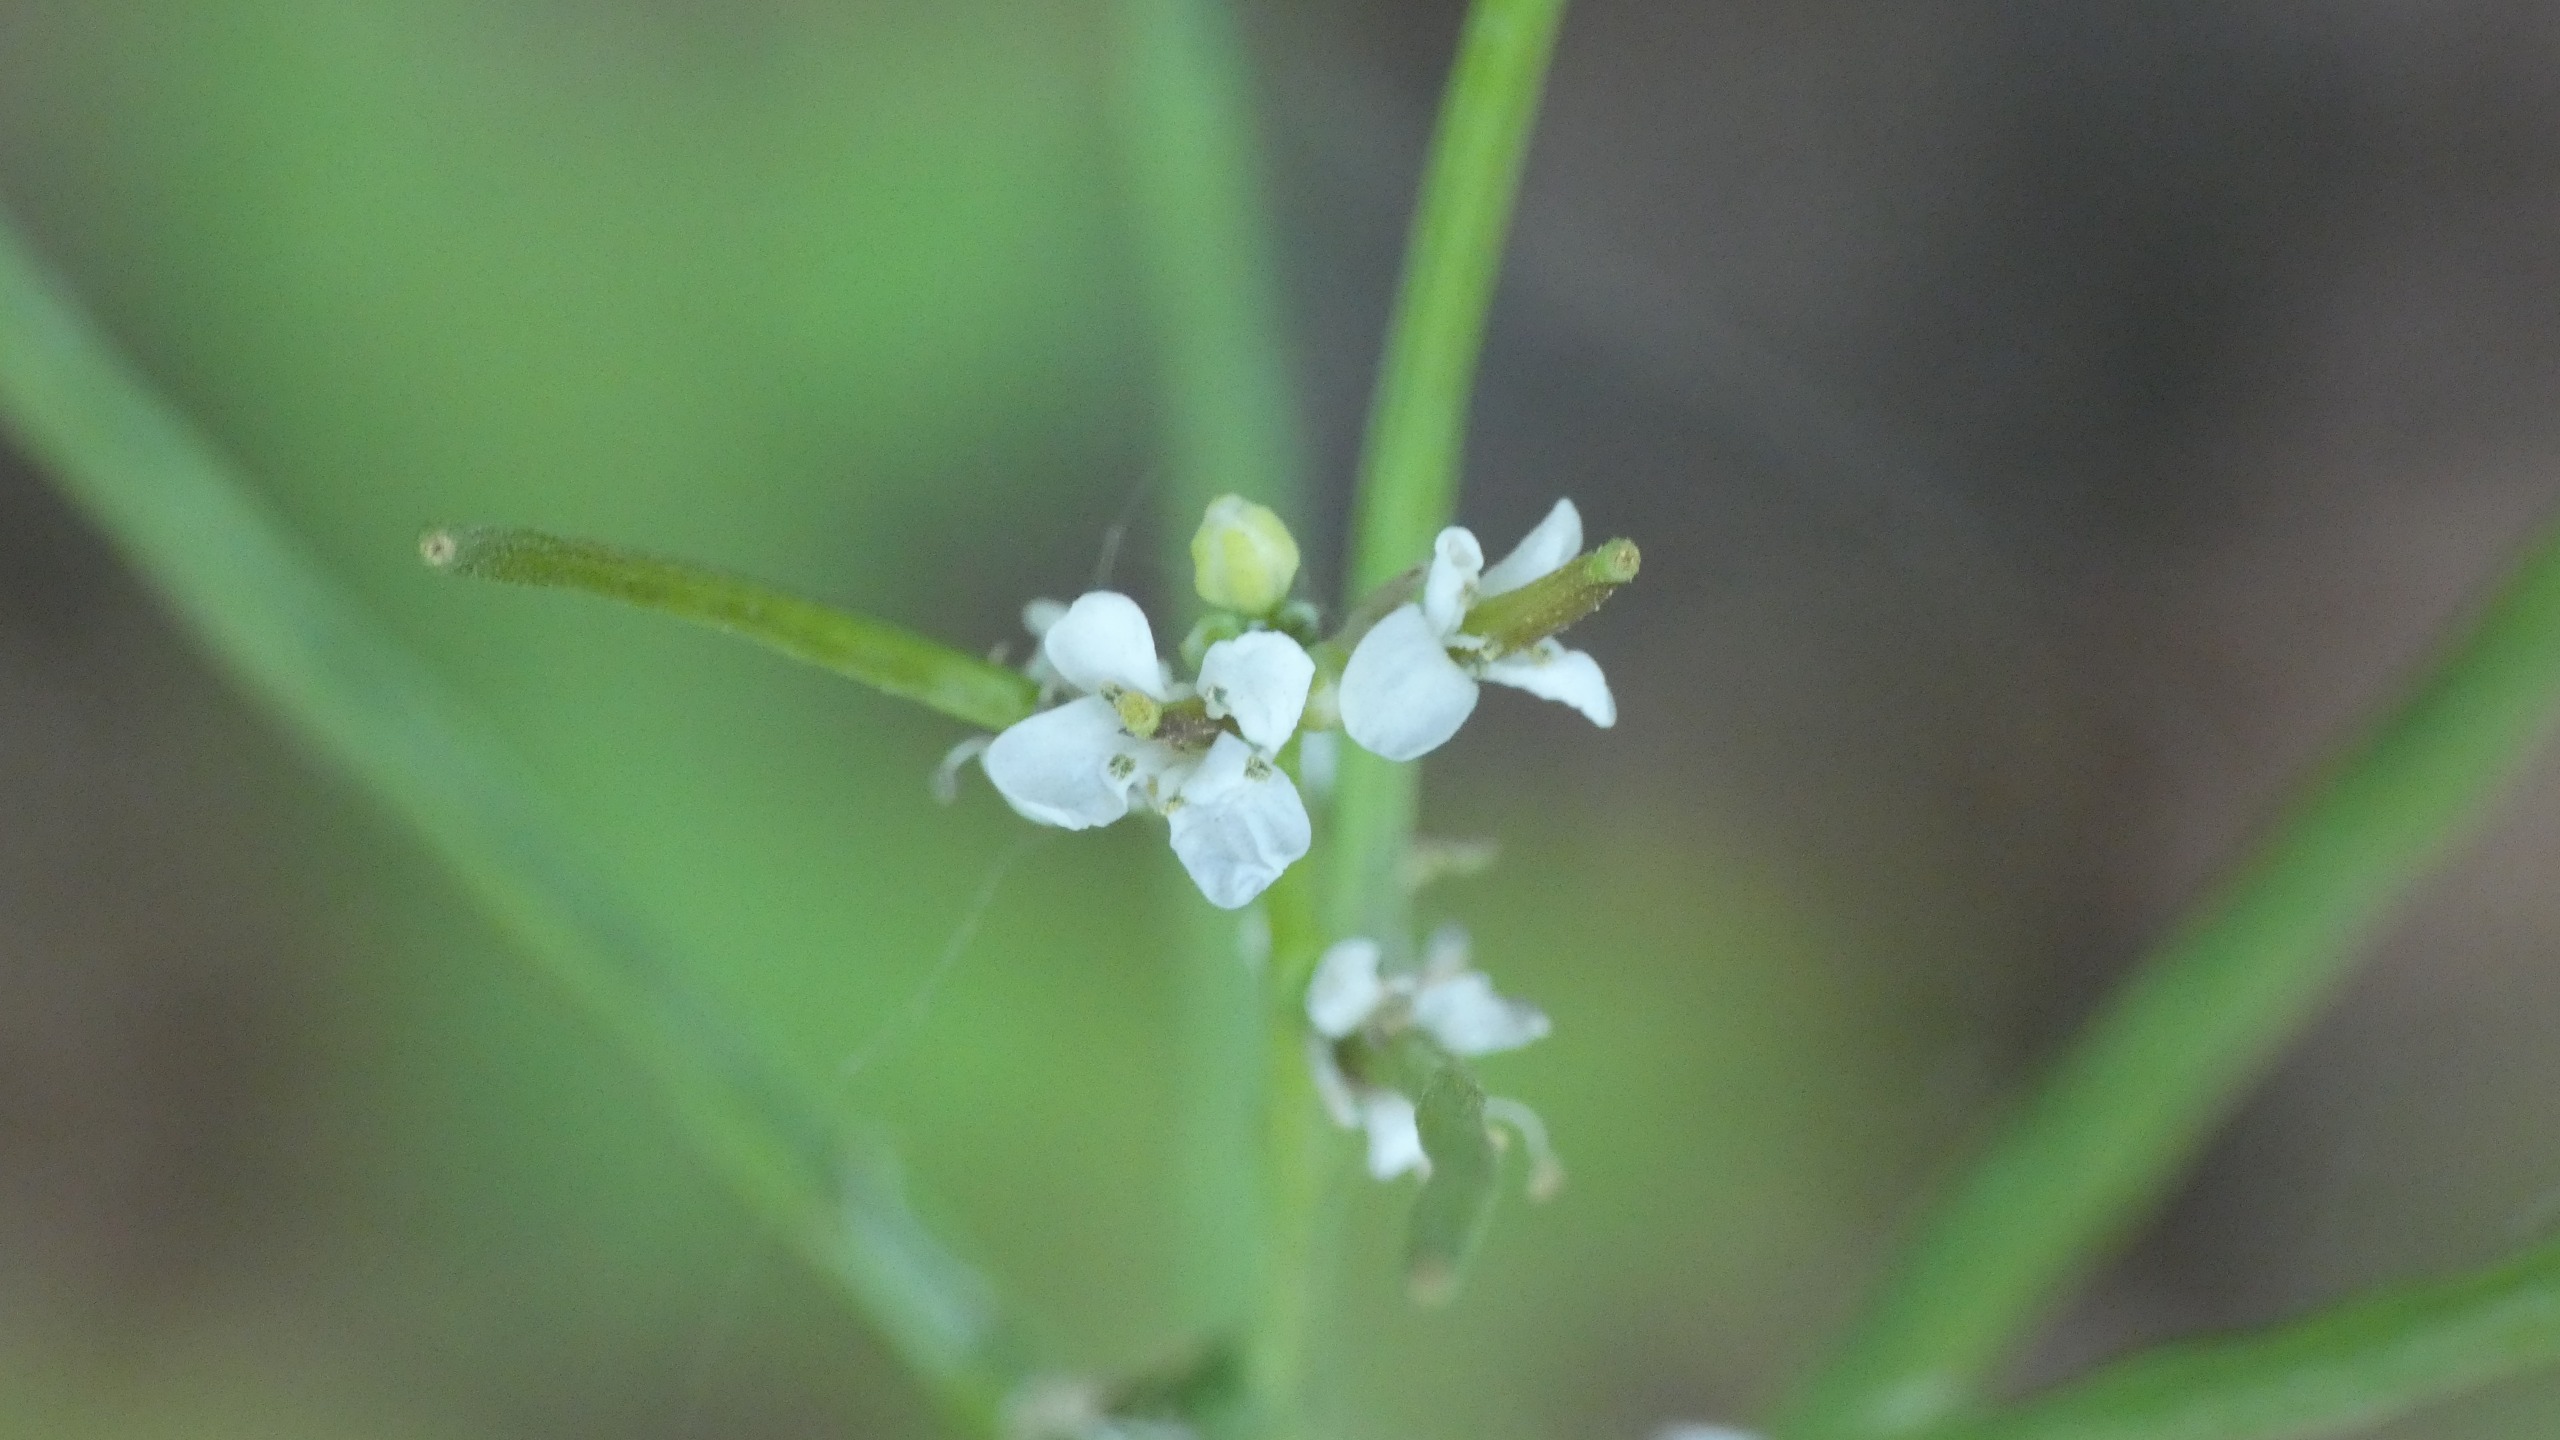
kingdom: Plantae
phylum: Tracheophyta
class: Magnoliopsida
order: Brassicales
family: Brassicaceae
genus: Alliaria
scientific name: Alliaria petiolata
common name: Løgkarse
